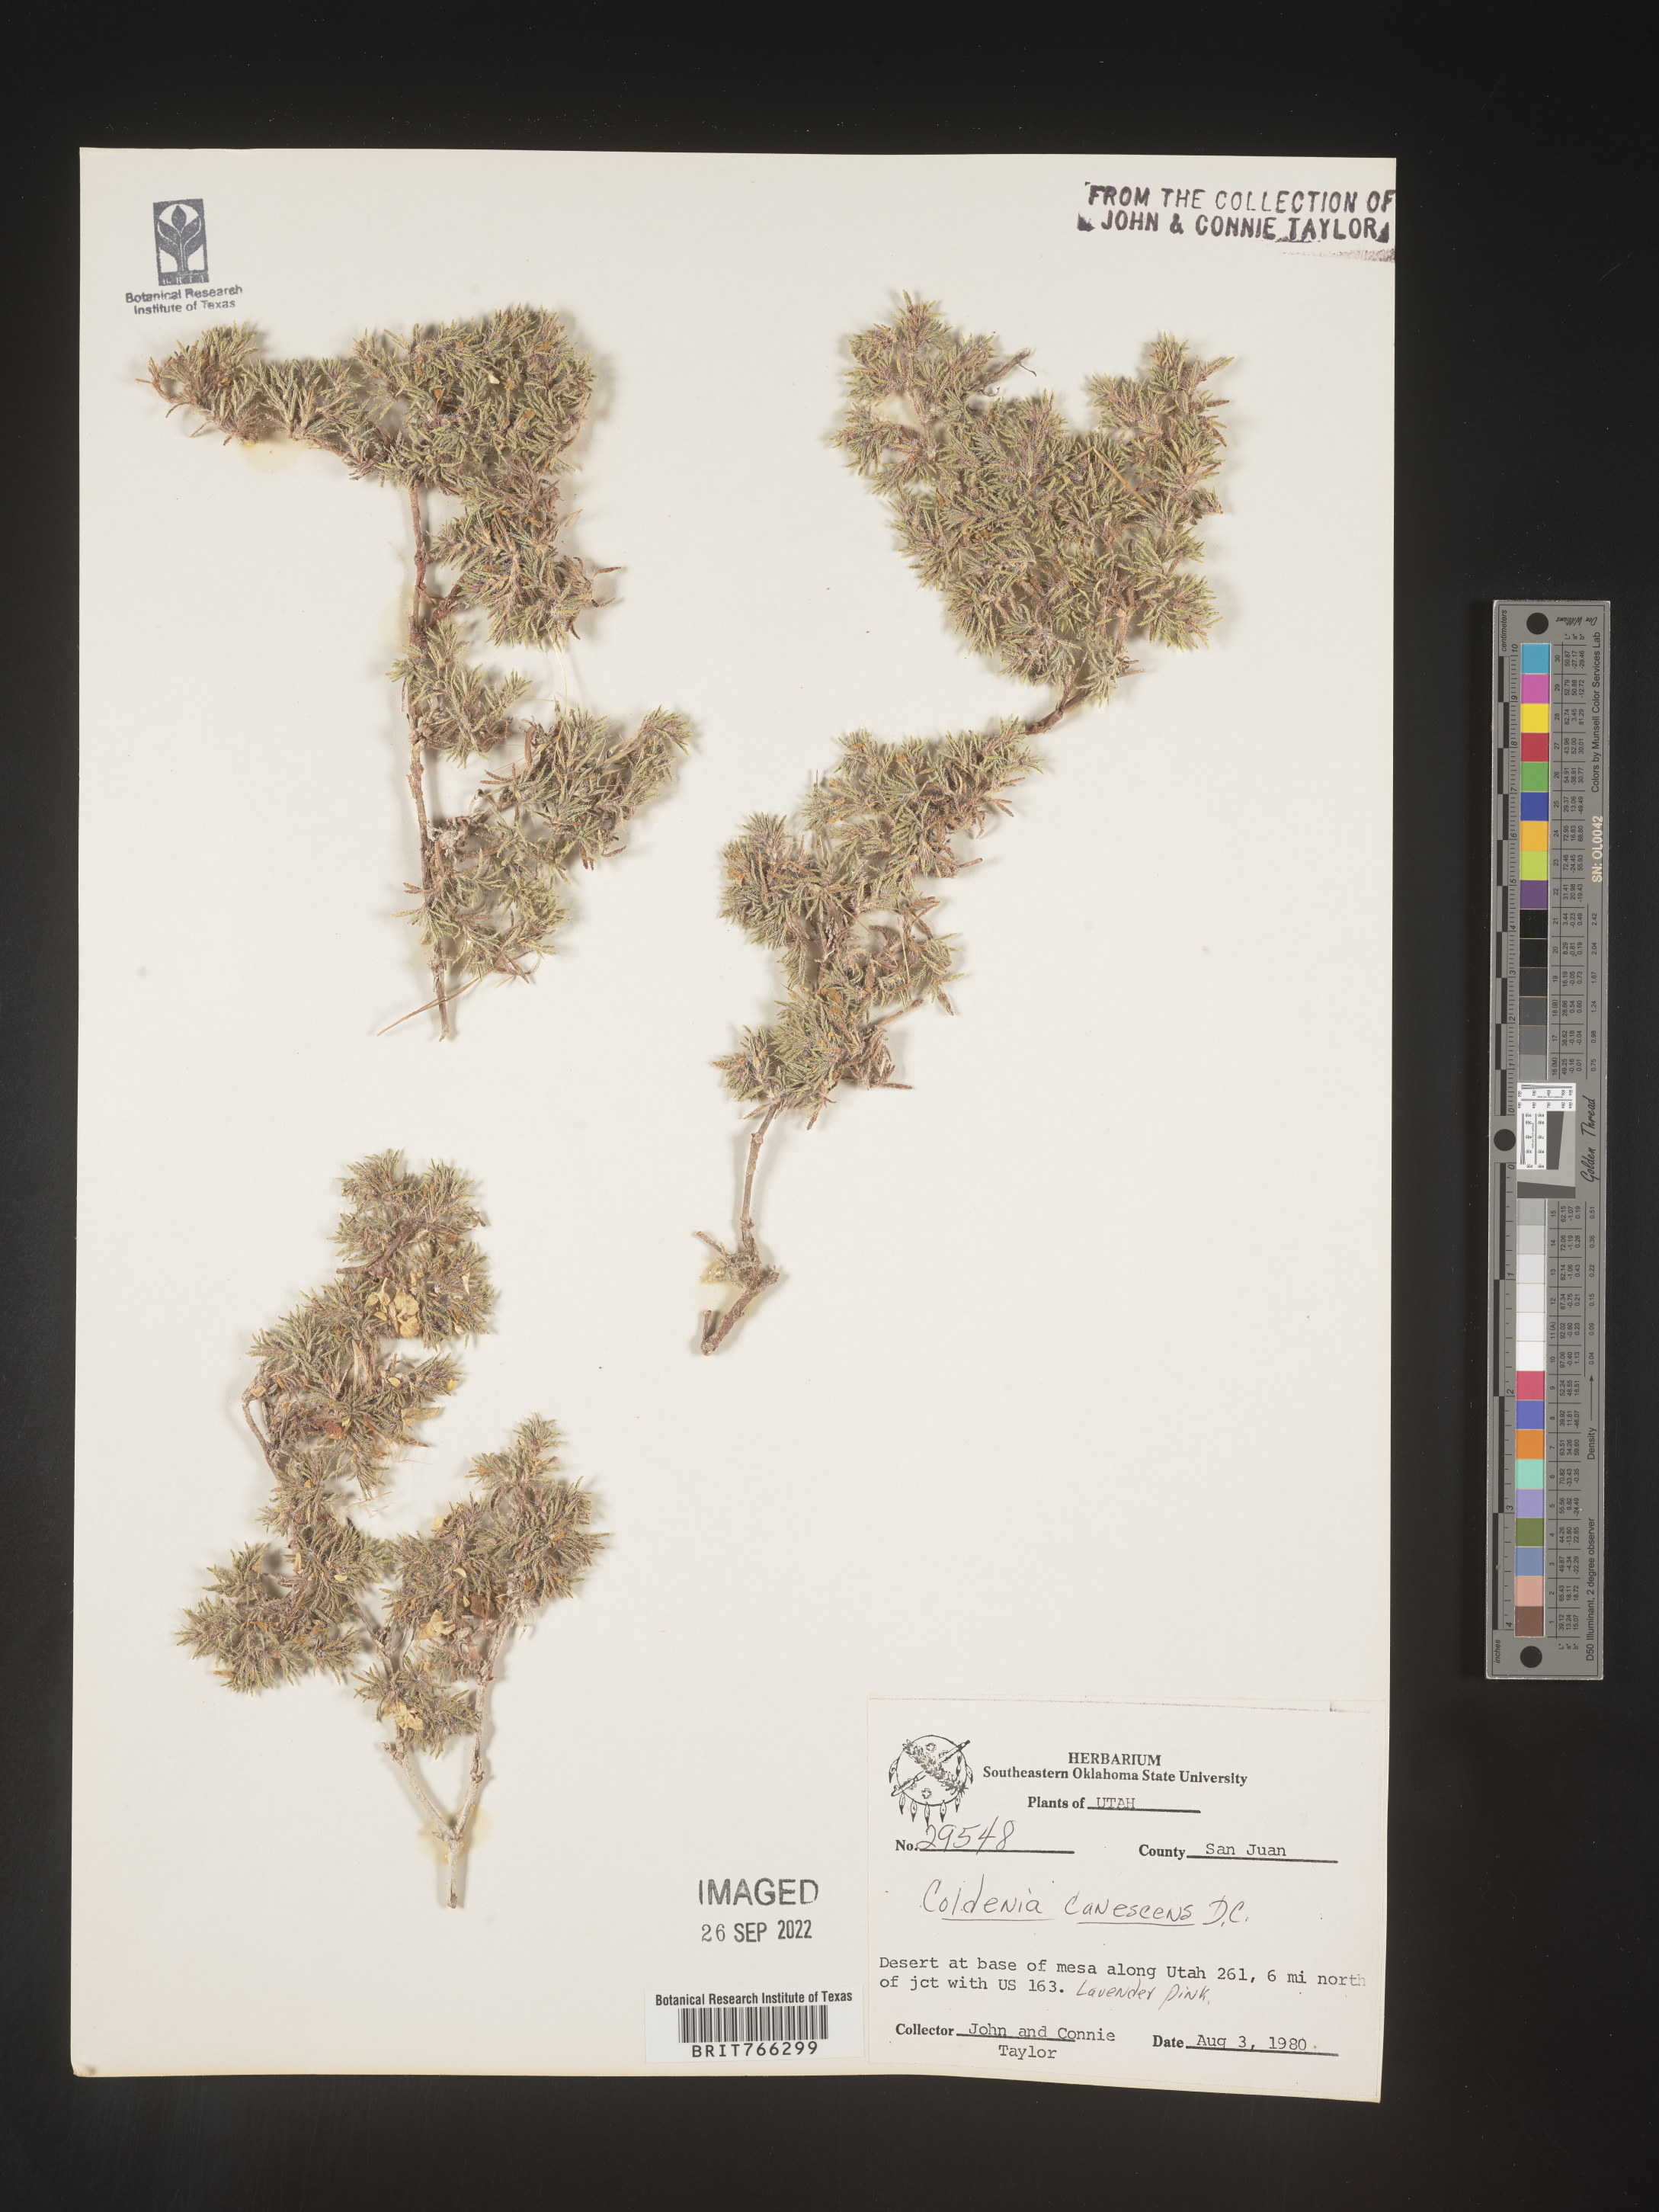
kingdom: Plantae
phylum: Tracheophyta
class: Magnoliopsida
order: Boraginales
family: Coldeniaceae
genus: Coldenia
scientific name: Coldenia
